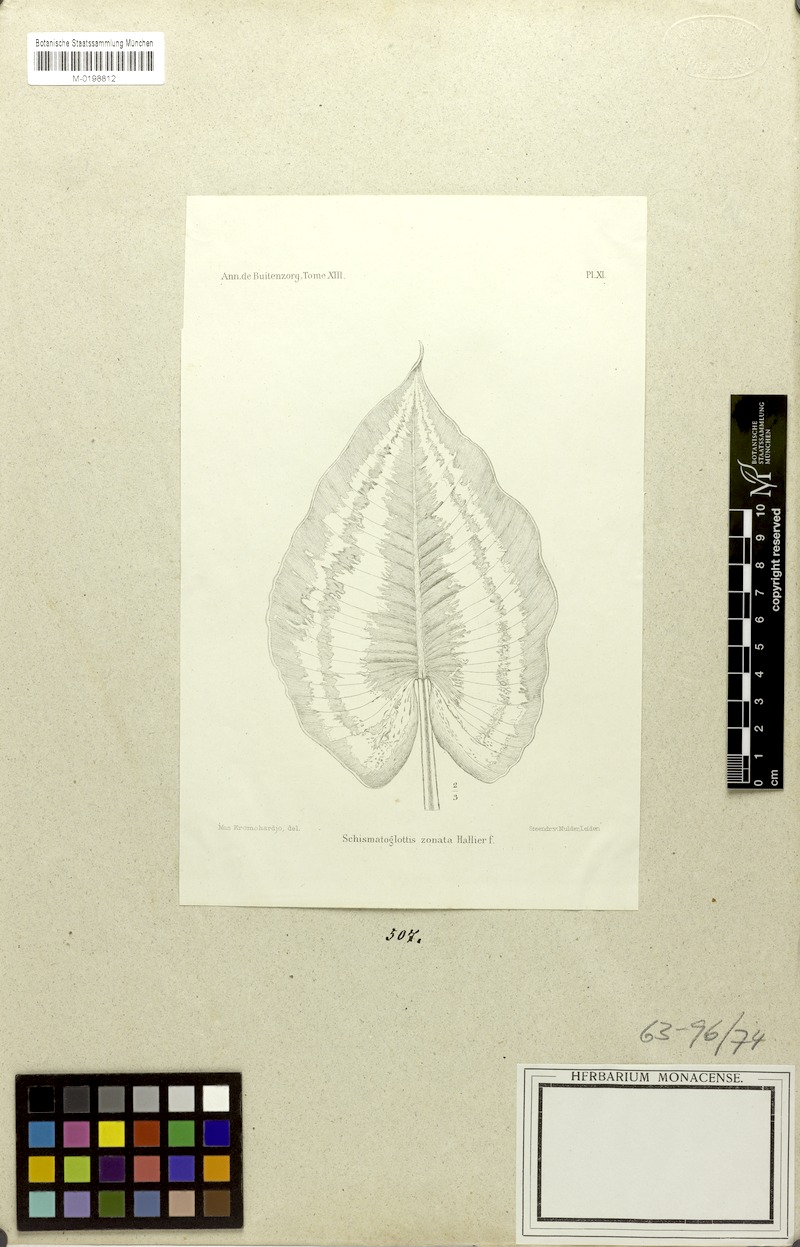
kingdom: Plantae
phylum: Tracheophyta
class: Liliopsida
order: Alismatales
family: Araceae
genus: Schismatoglottis
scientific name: Schismatoglottis zonata
